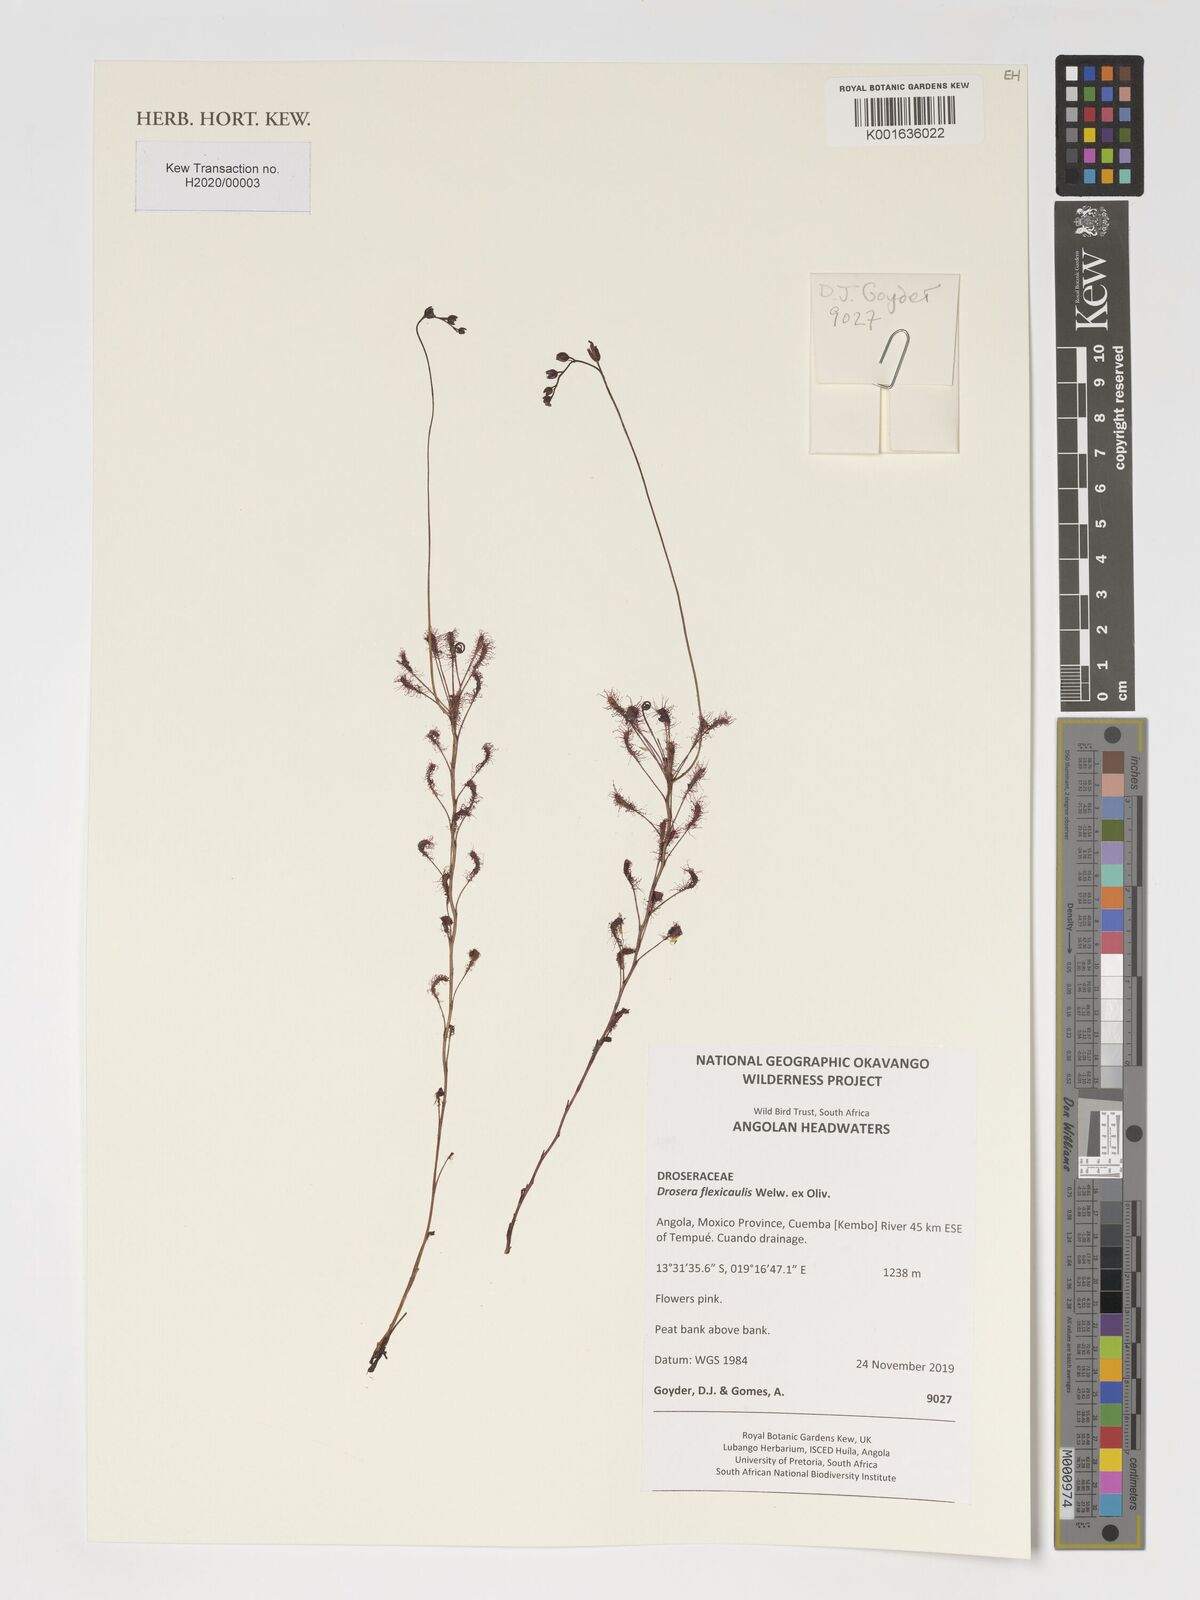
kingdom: Plantae
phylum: Tracheophyta
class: Magnoliopsida
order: Caryophyllales
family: Droseraceae
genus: Drosera
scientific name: Drosera affinis
